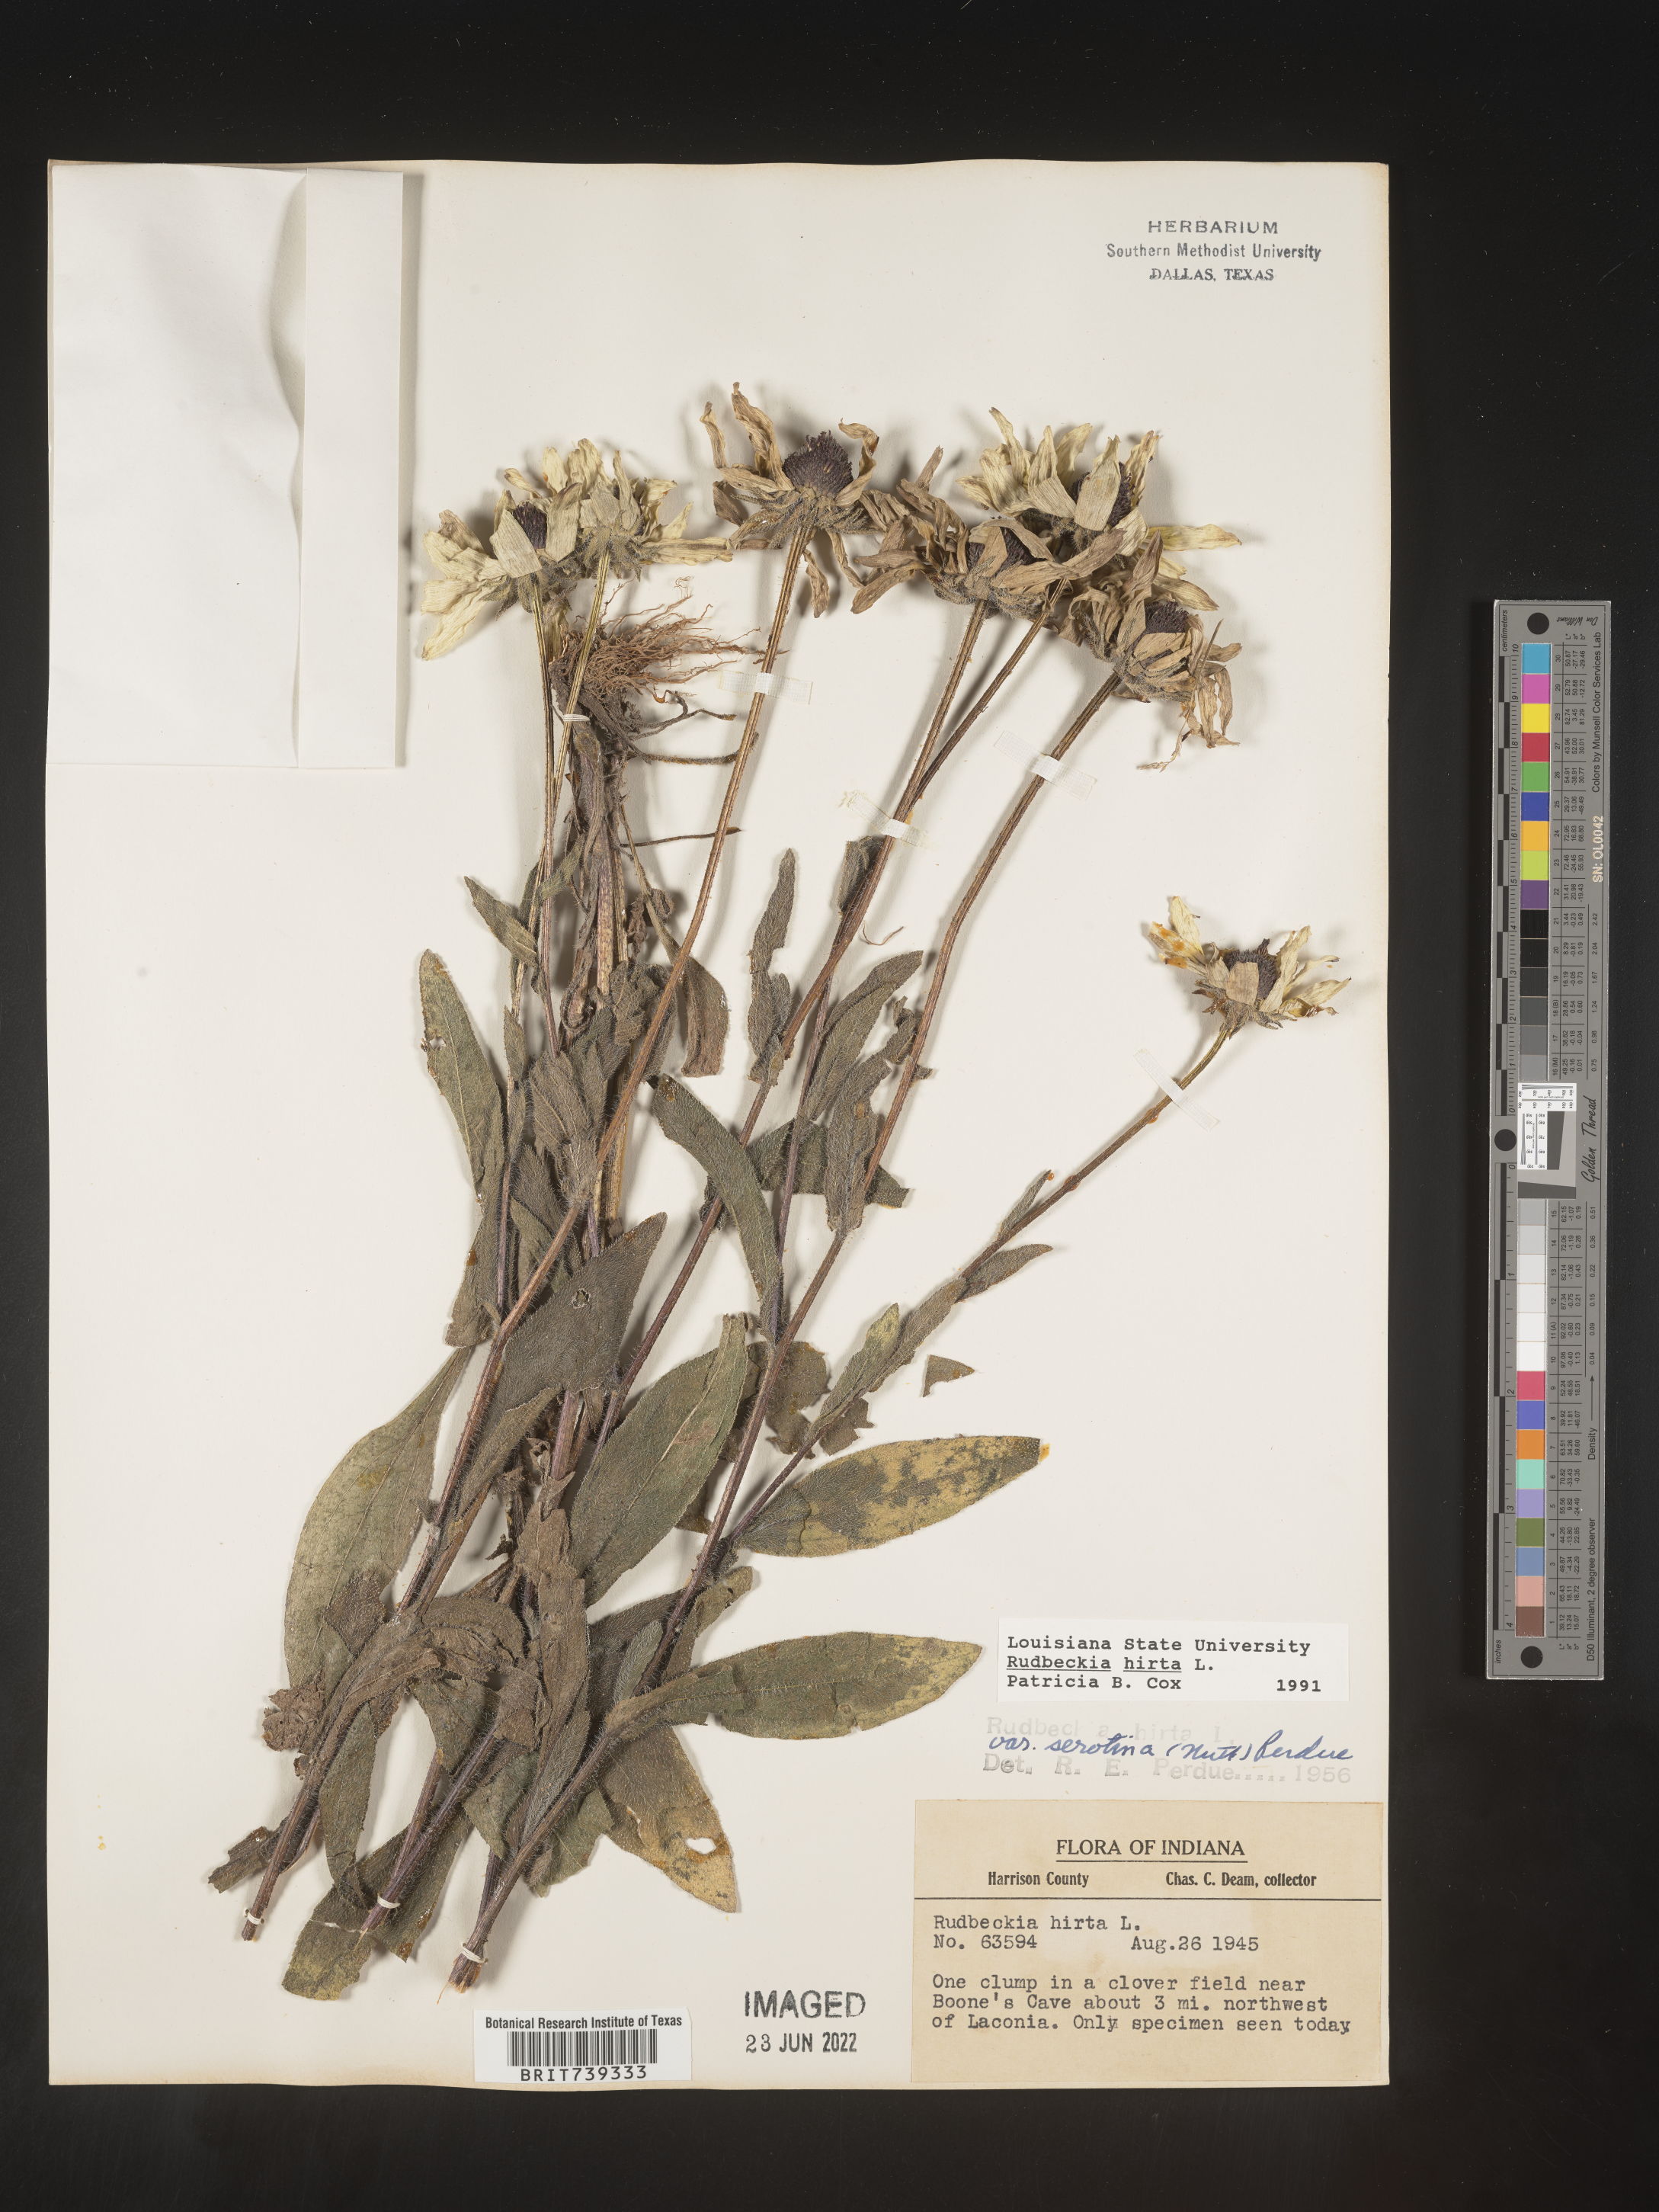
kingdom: Plantae
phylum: Tracheophyta
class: Magnoliopsida
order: Asterales
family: Asteraceae
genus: Rudbeckia
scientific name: Rudbeckia hirta
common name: Black-eyed-susan
